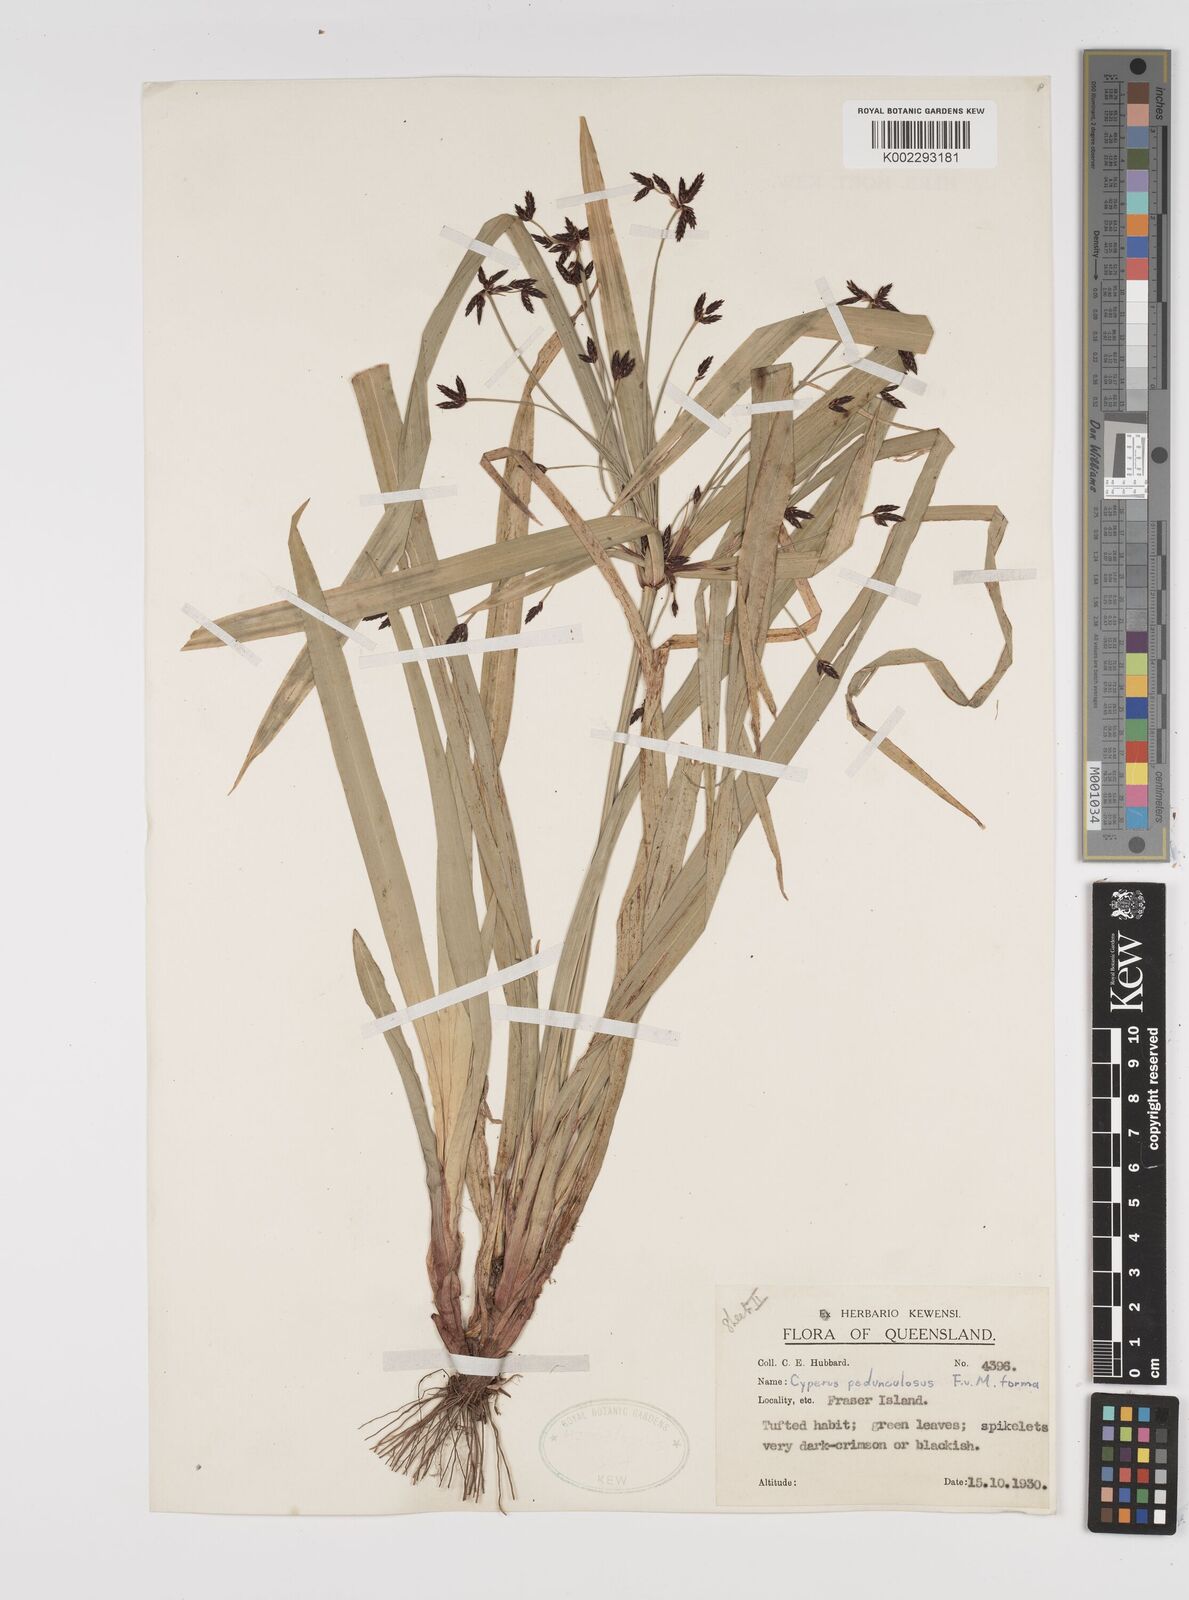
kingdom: Plantae
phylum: Tracheophyta
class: Liliopsida
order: Poales
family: Cyperaceae
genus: Cyperus
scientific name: Cyperus pedunculosus
